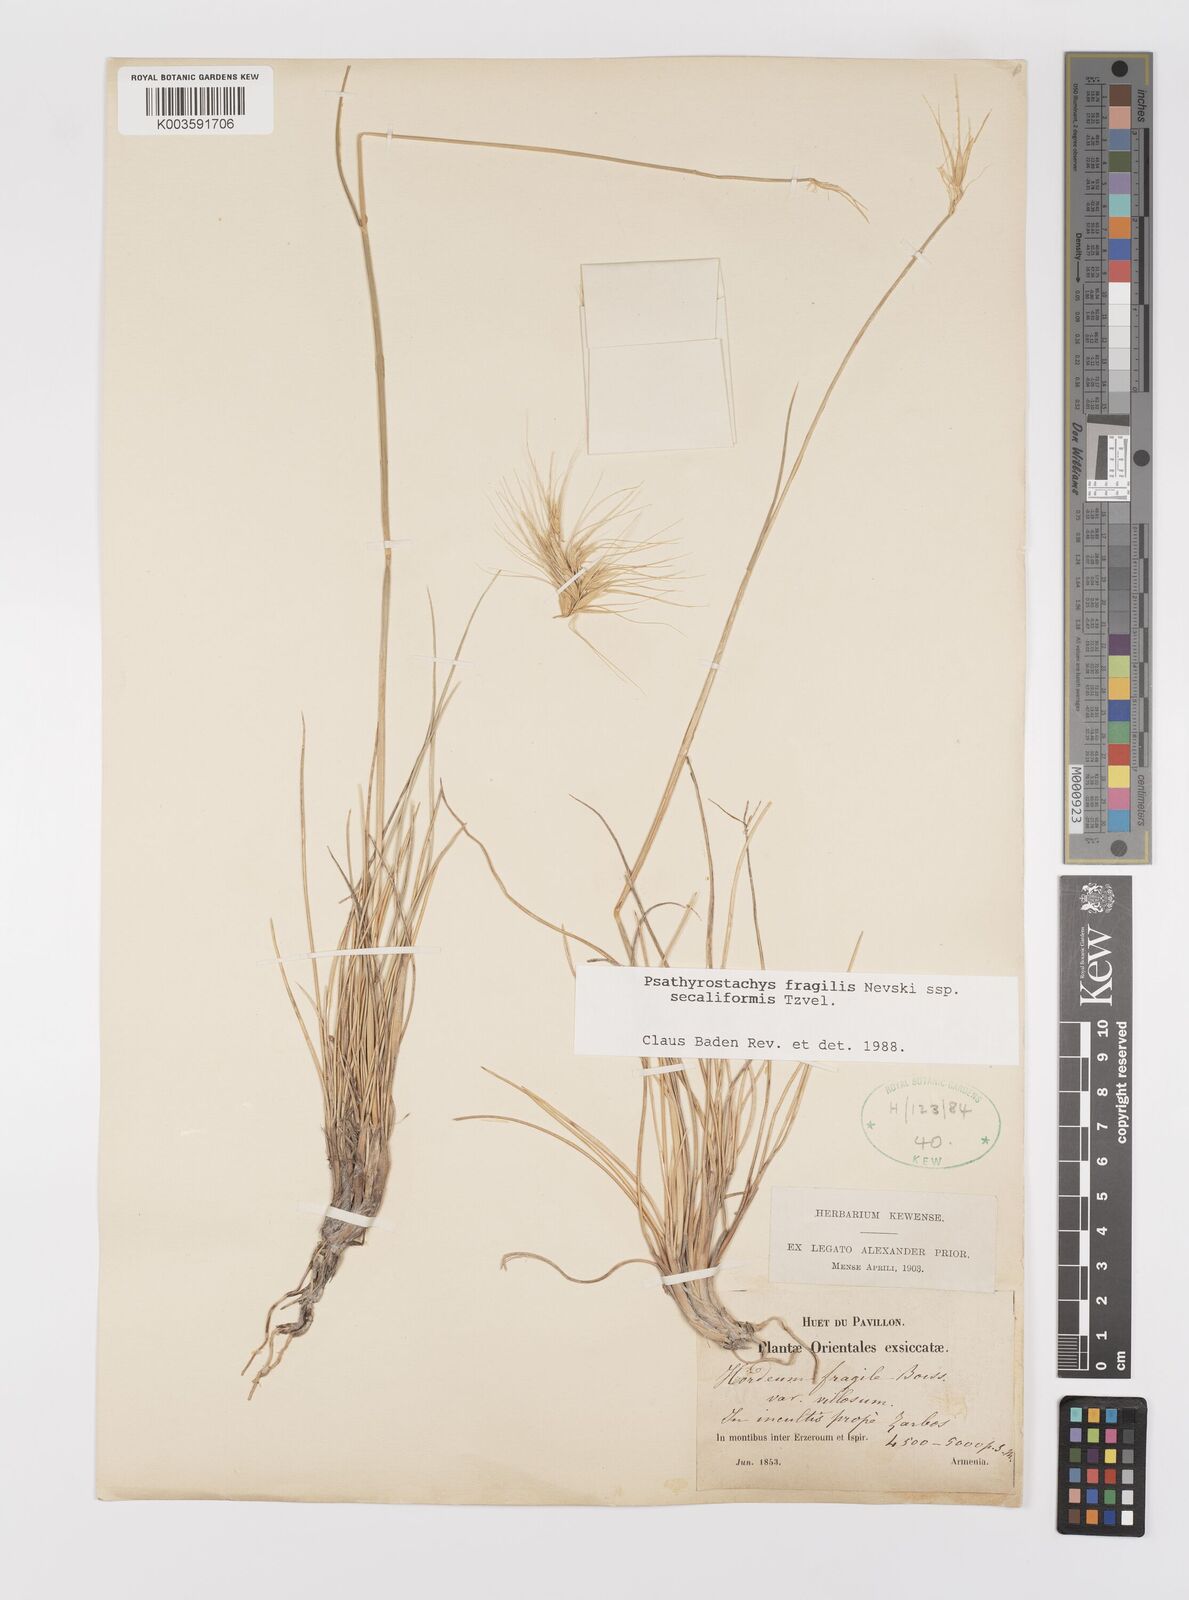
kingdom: Plantae
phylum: Tracheophyta
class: Liliopsida
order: Poales
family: Poaceae
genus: Psathyrostachys
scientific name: Psathyrostachys fragilis
